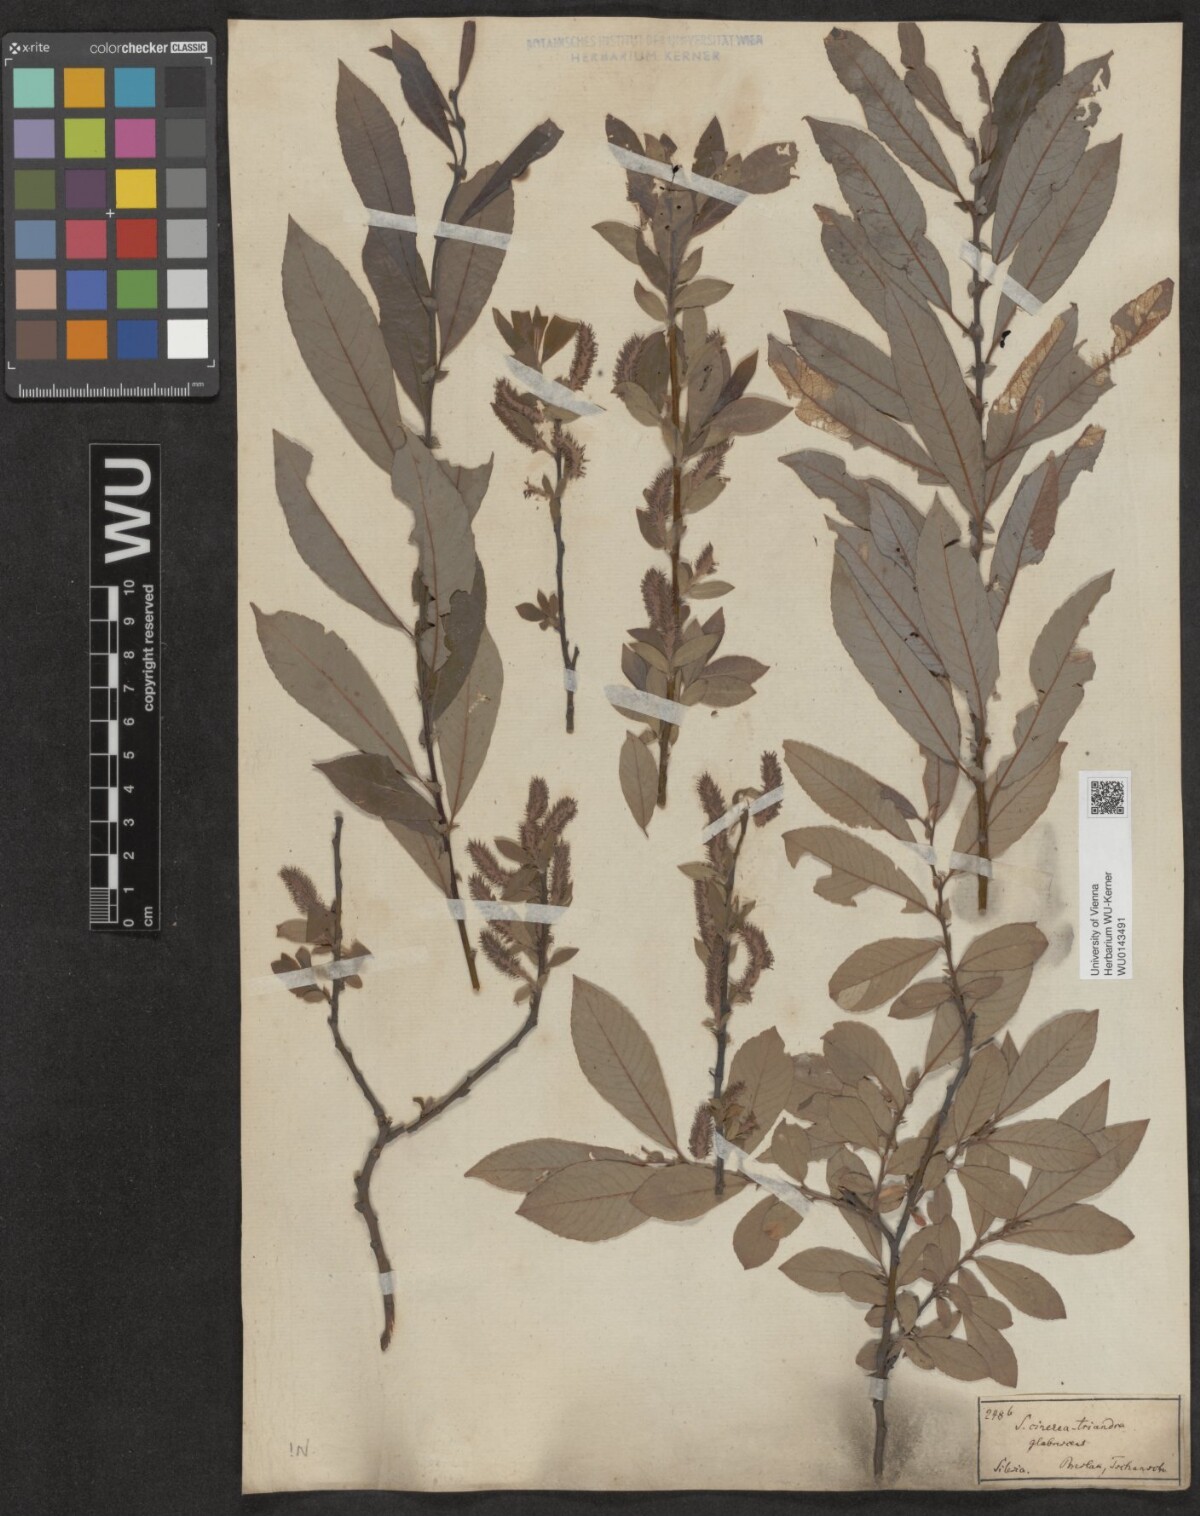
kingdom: Plantae
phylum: Tracheophyta
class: Magnoliopsida
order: Malpighiales
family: Salicaceae
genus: Salix
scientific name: Salix triandra
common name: Almond willow
